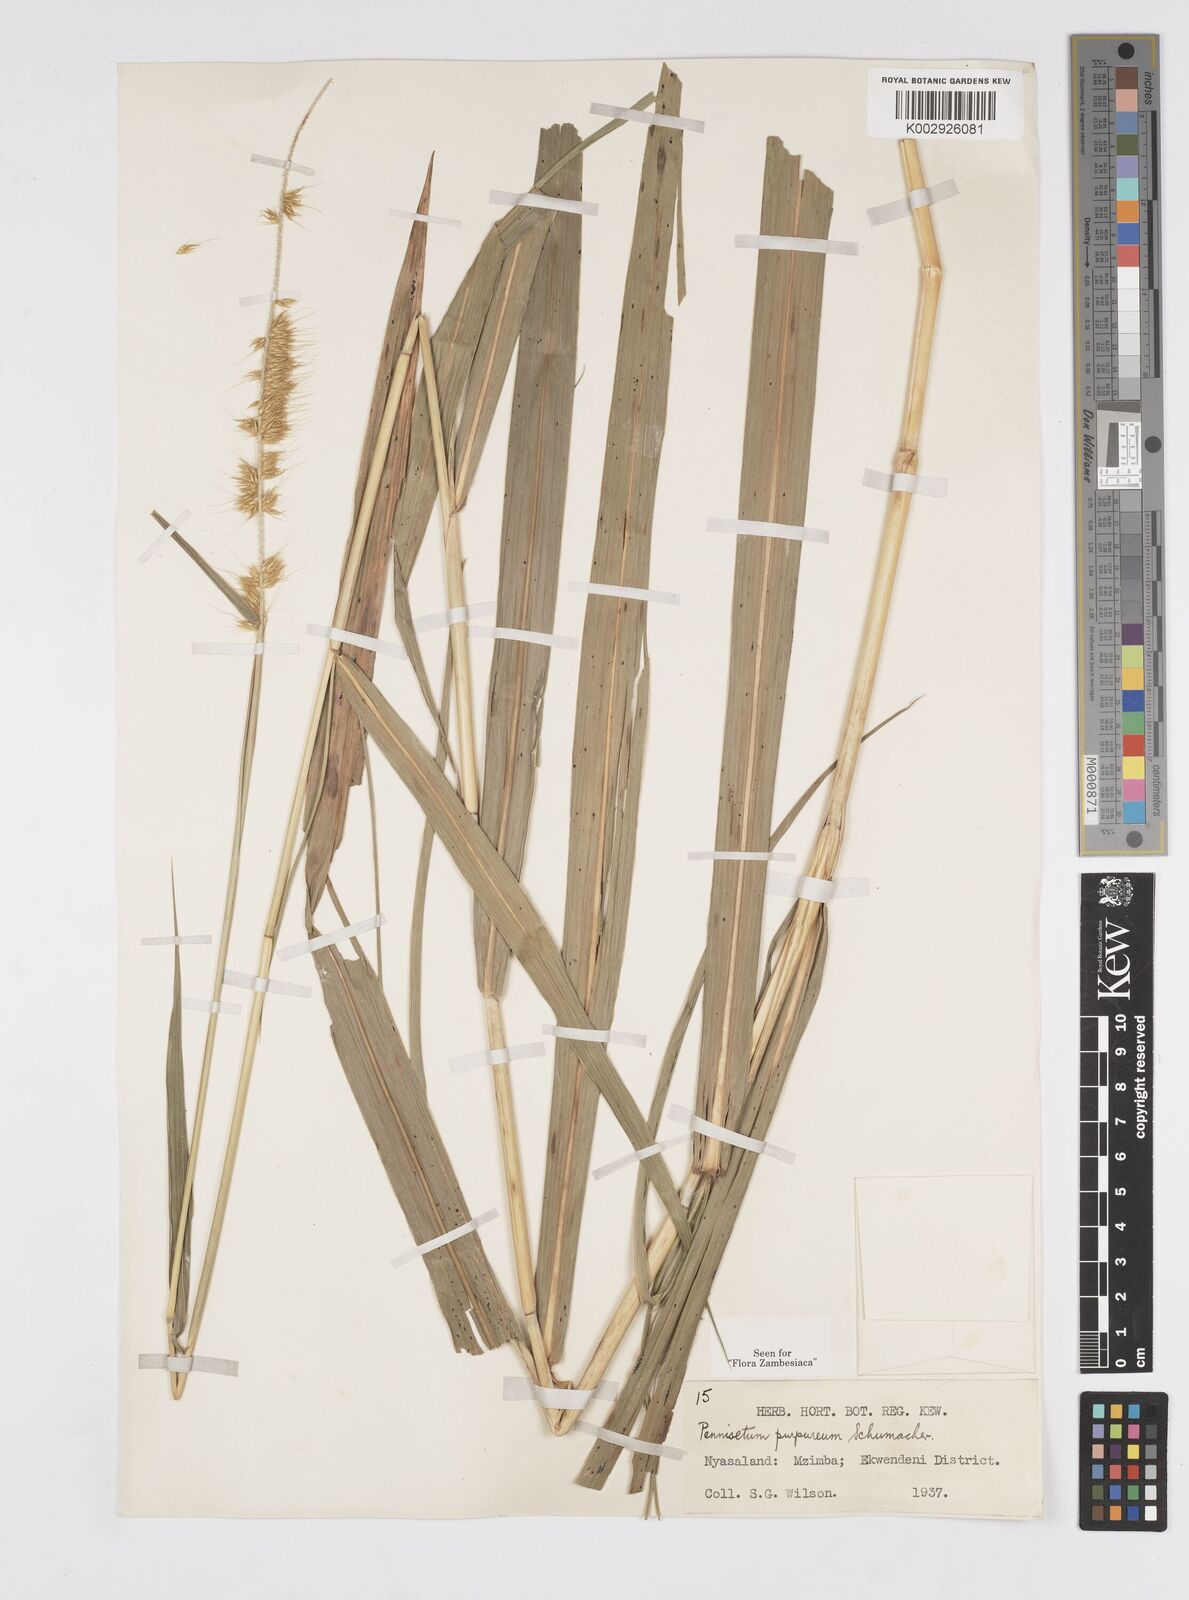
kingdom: Plantae
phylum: Tracheophyta
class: Liliopsida
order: Poales
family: Poaceae
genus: Cenchrus
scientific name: Cenchrus purpureus
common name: Elephant grass
